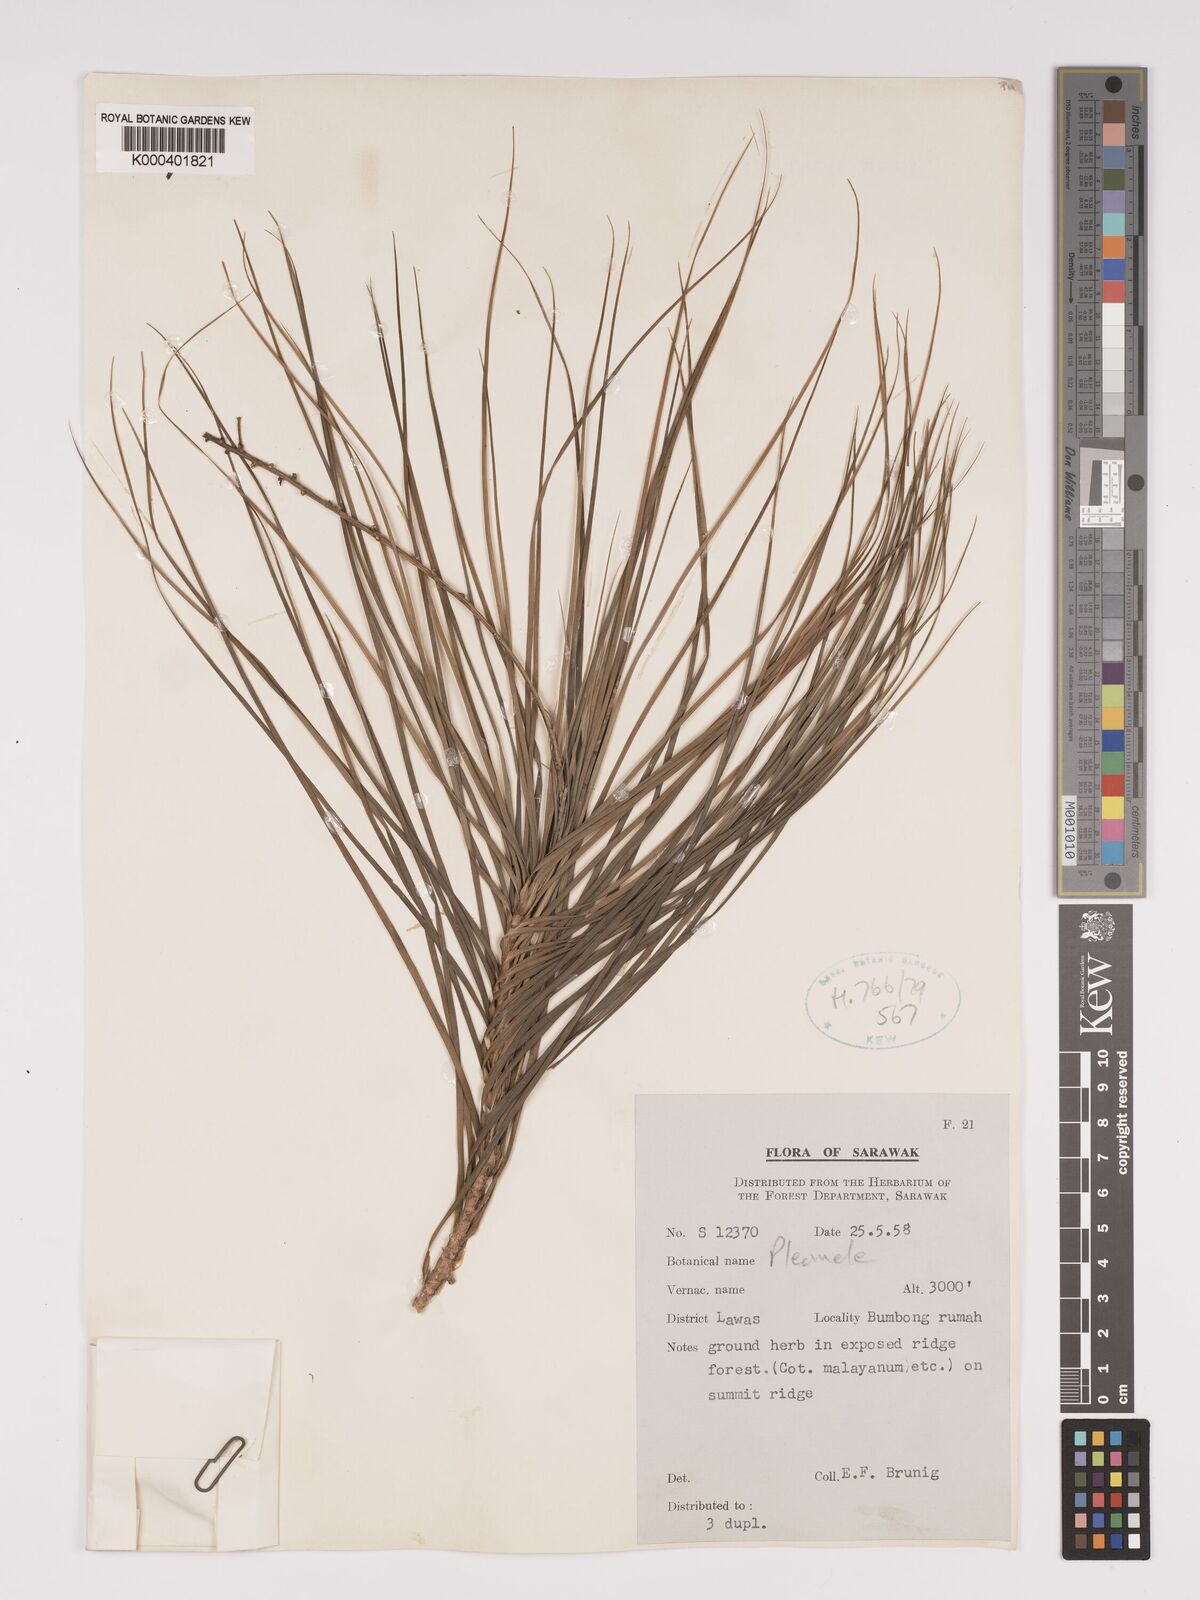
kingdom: Plantae
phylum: Tracheophyta
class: Liliopsida
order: Asparagales
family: Asparagaceae
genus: Dracaena
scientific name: Dracaena
